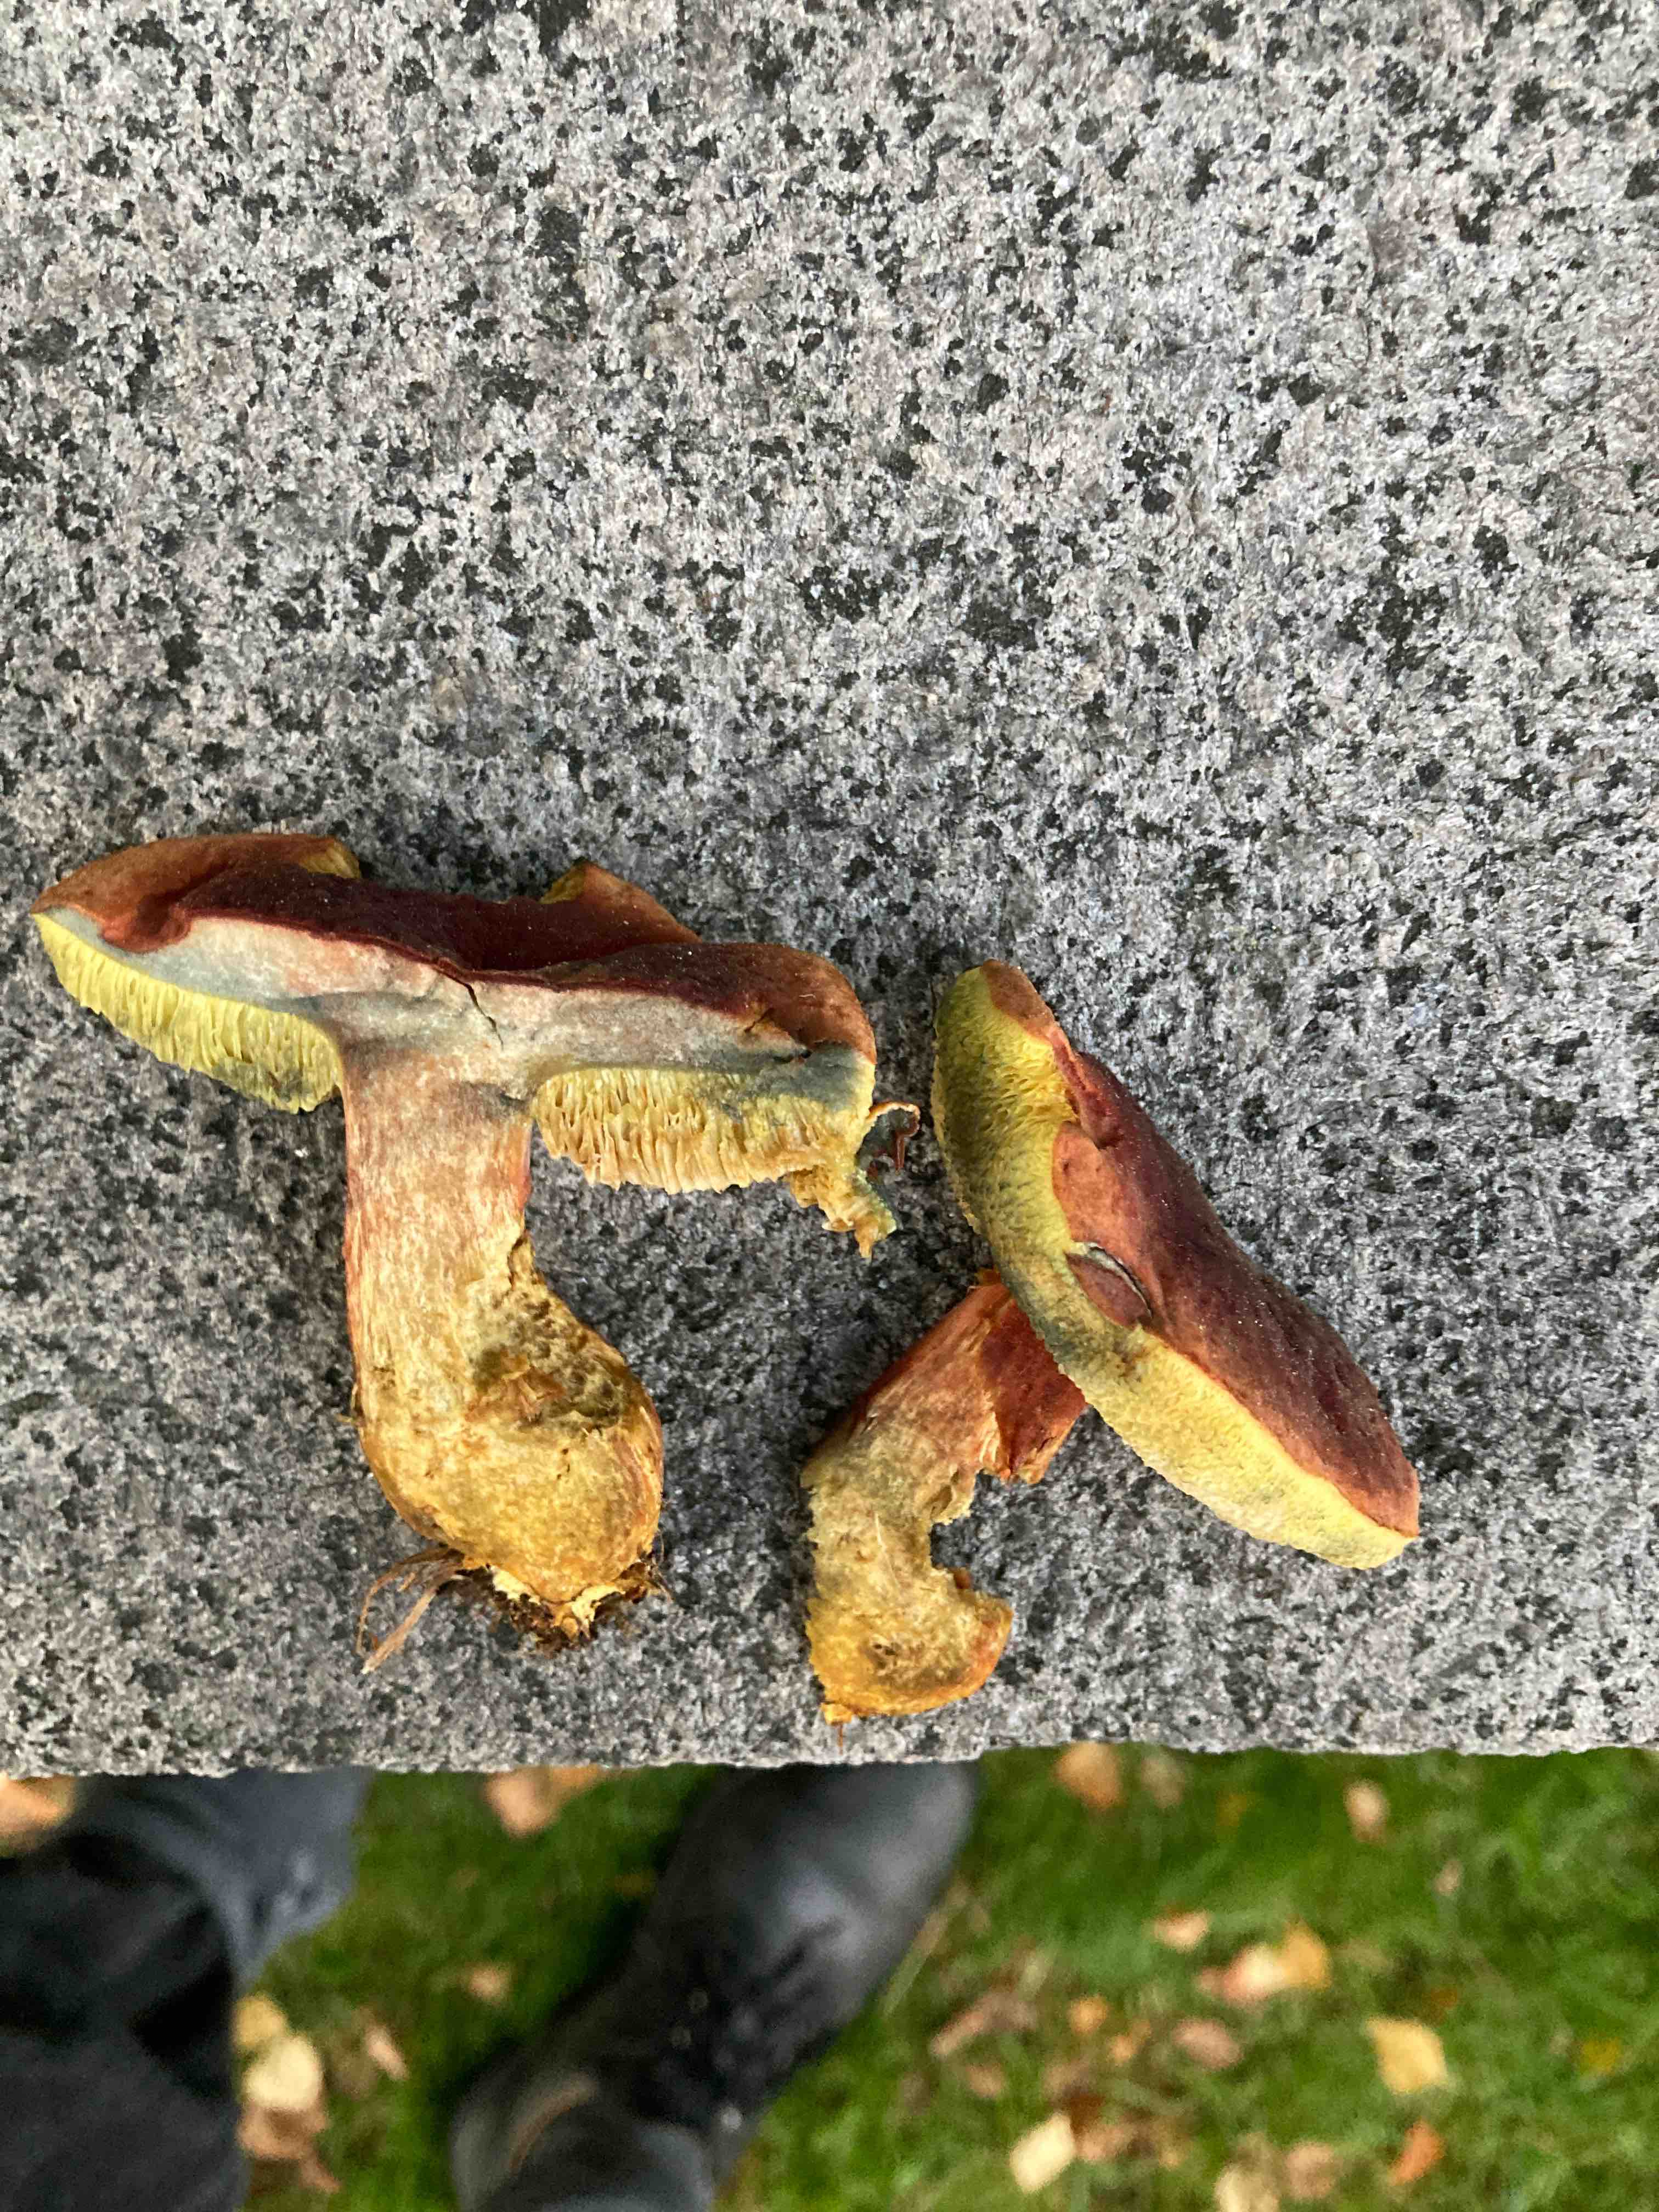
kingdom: Fungi
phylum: Basidiomycota
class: Agaricomycetes
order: Boletales
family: Boletaceae
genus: Hortiboletus
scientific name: Hortiboletus bubalinus
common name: aurora-rørhat
